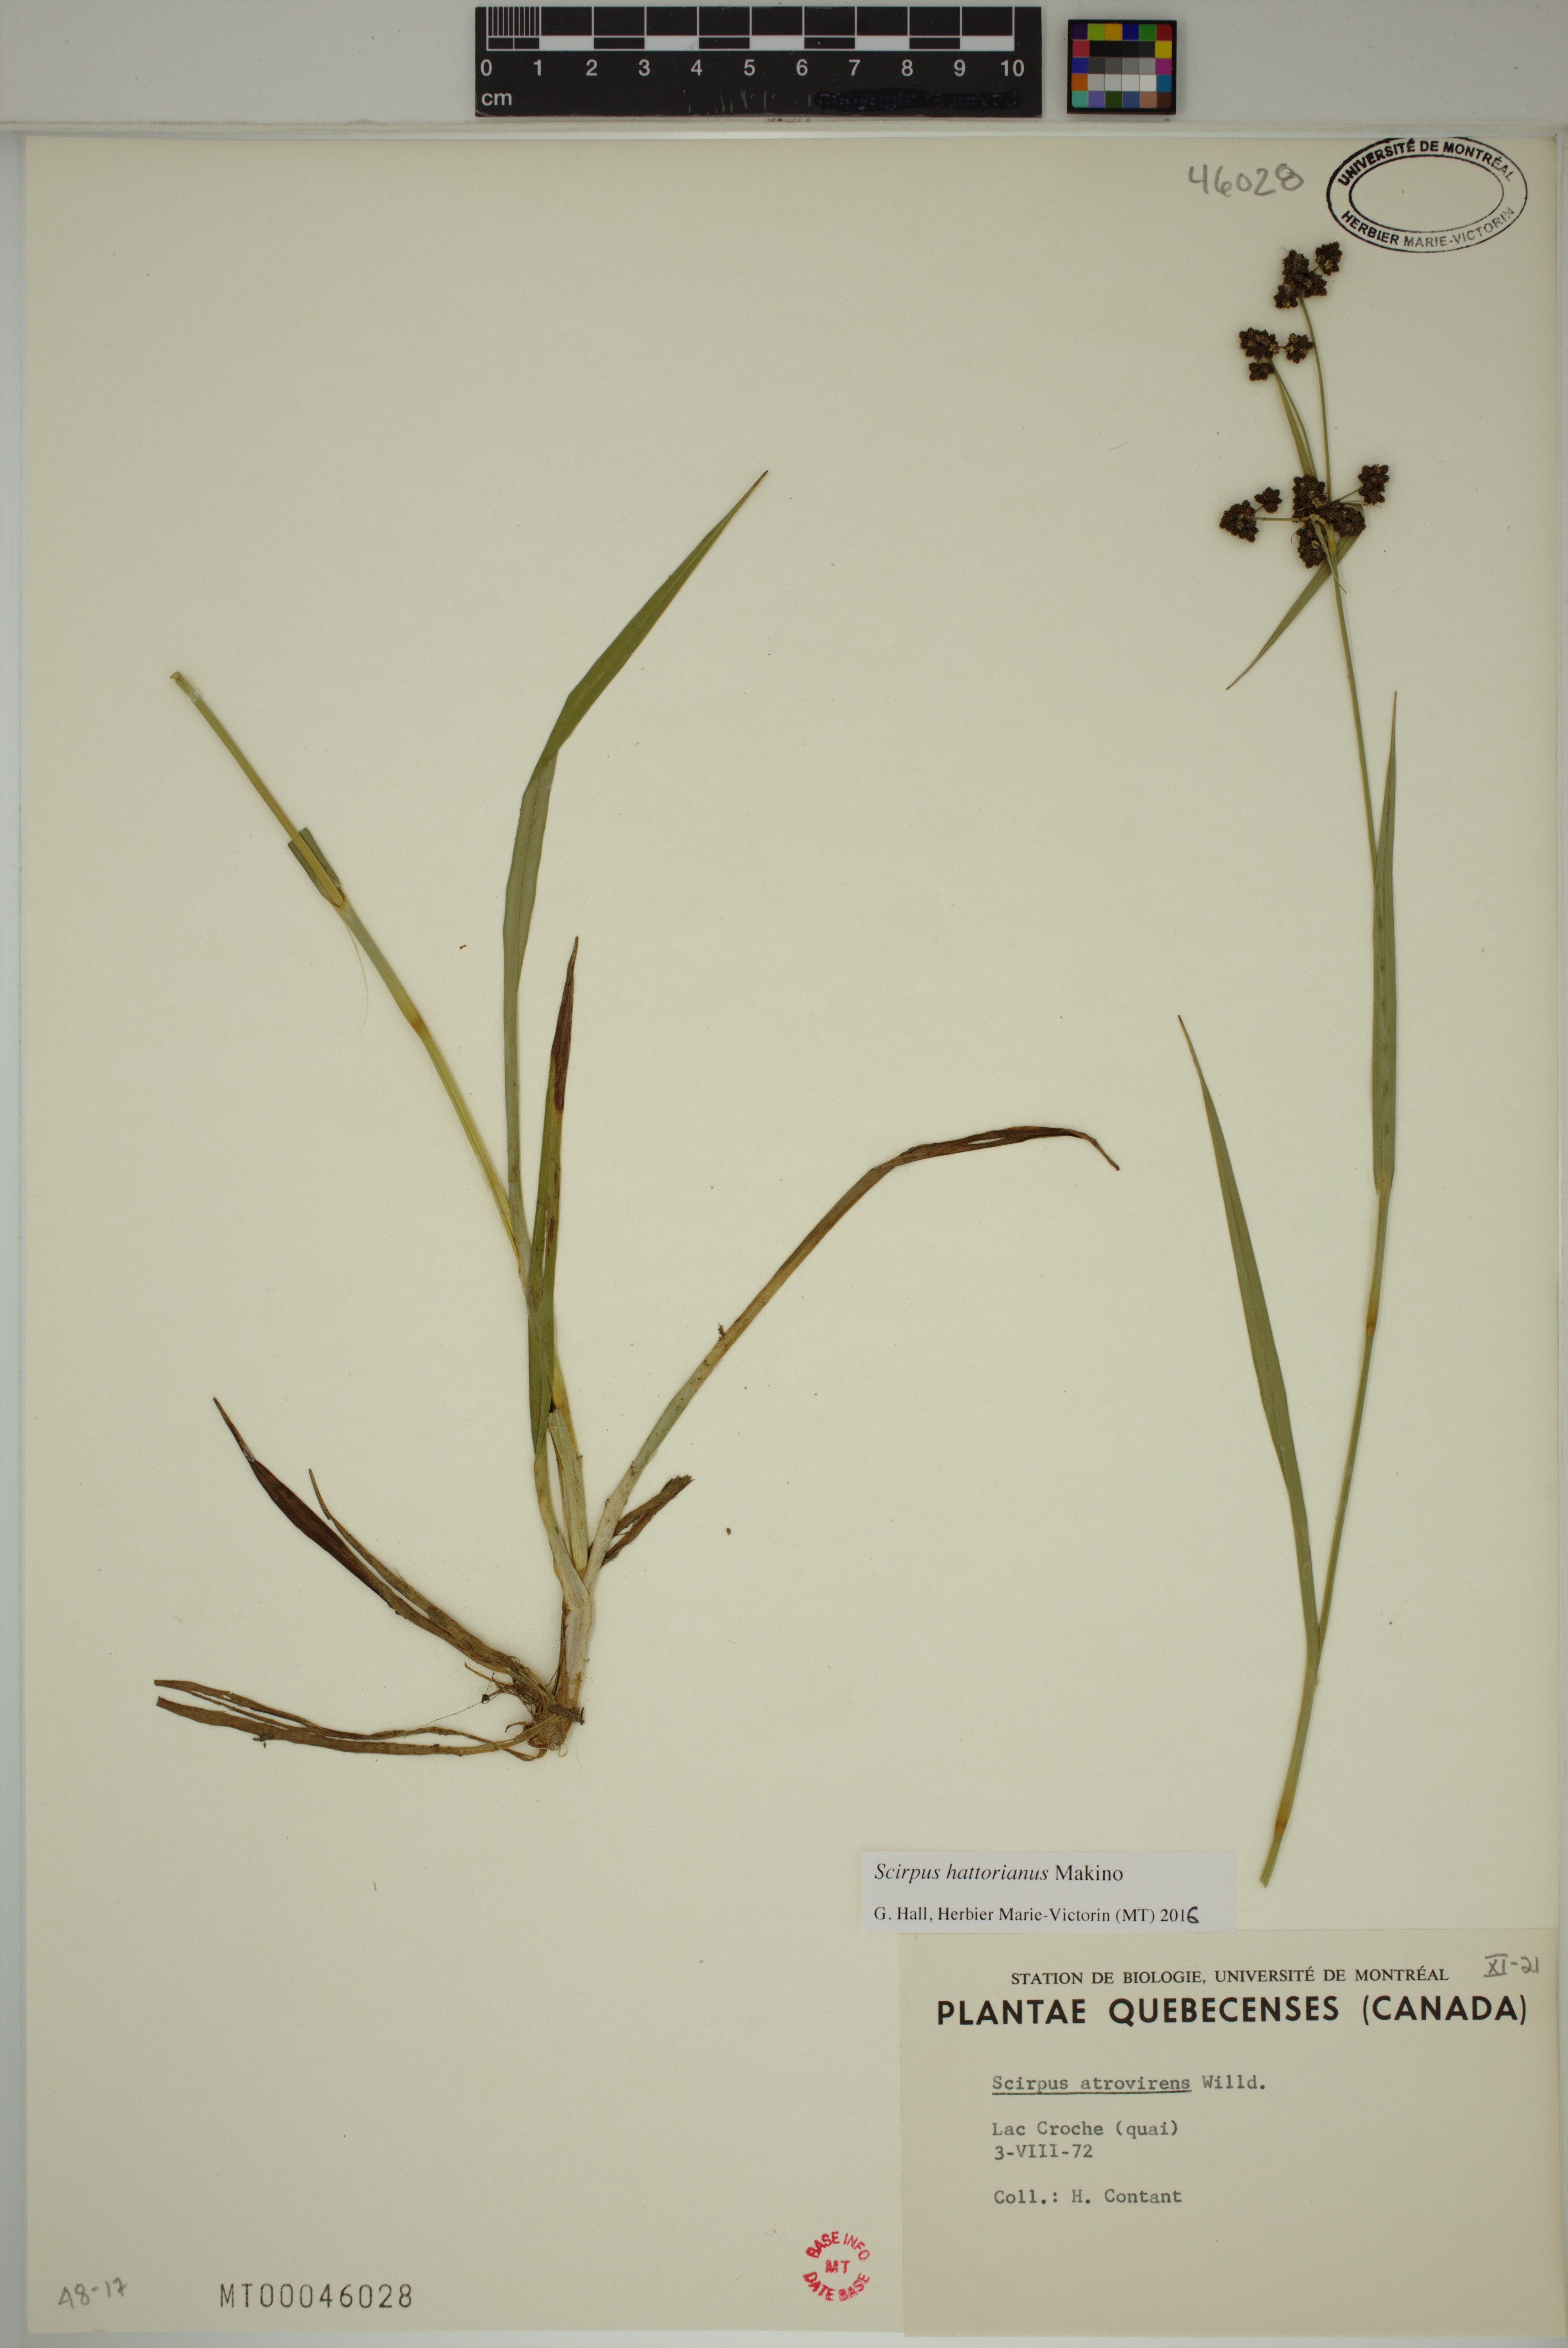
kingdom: Plantae
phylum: Tracheophyta
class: Liliopsida
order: Poales
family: Cyperaceae
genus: Scirpus
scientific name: Scirpus hattorianus
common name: Early dark-green bulrush
